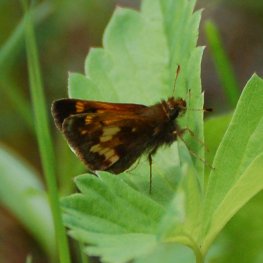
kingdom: Animalia
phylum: Arthropoda
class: Insecta
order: Lepidoptera
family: Hesperiidae
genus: Lon
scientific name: Lon hobomok
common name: Hobomok Skipper
